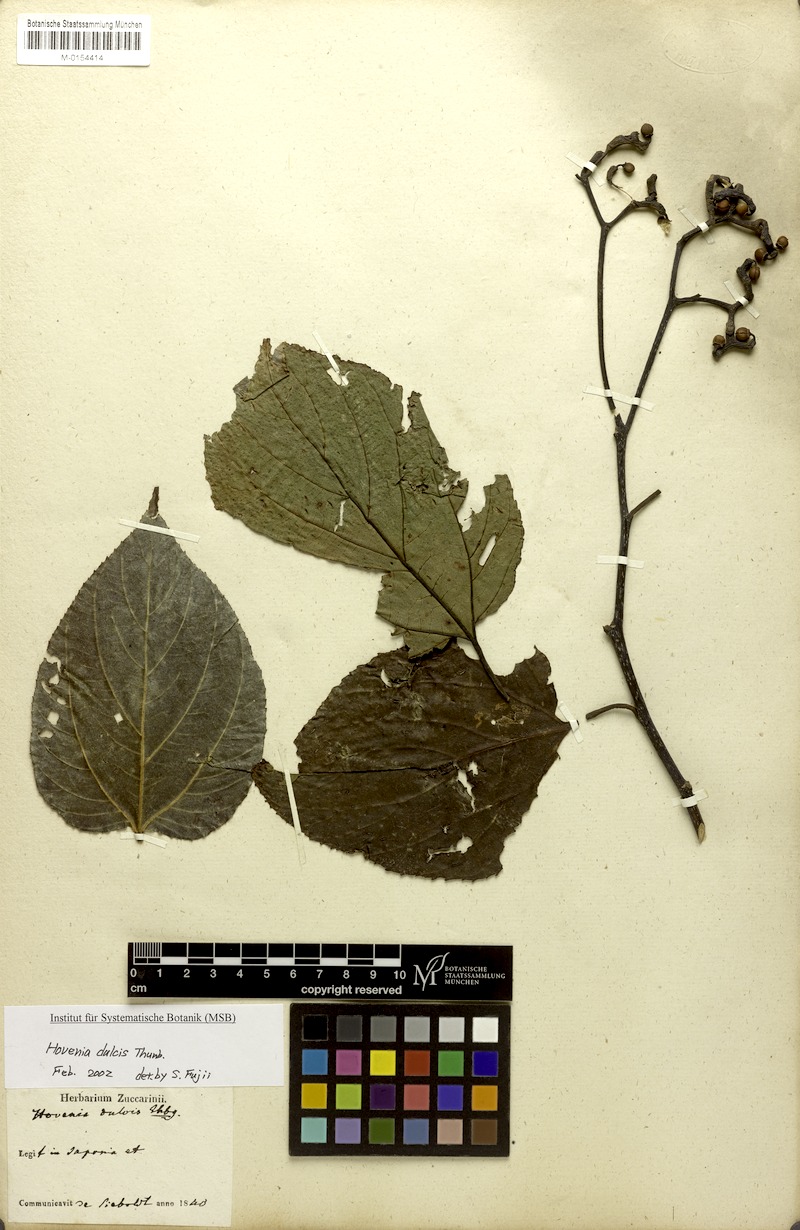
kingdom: Plantae
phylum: Tracheophyta
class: Magnoliopsida
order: Rosales
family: Rhamnaceae
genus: Hovenia
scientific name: Hovenia dulcis
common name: Japanese raisintree
